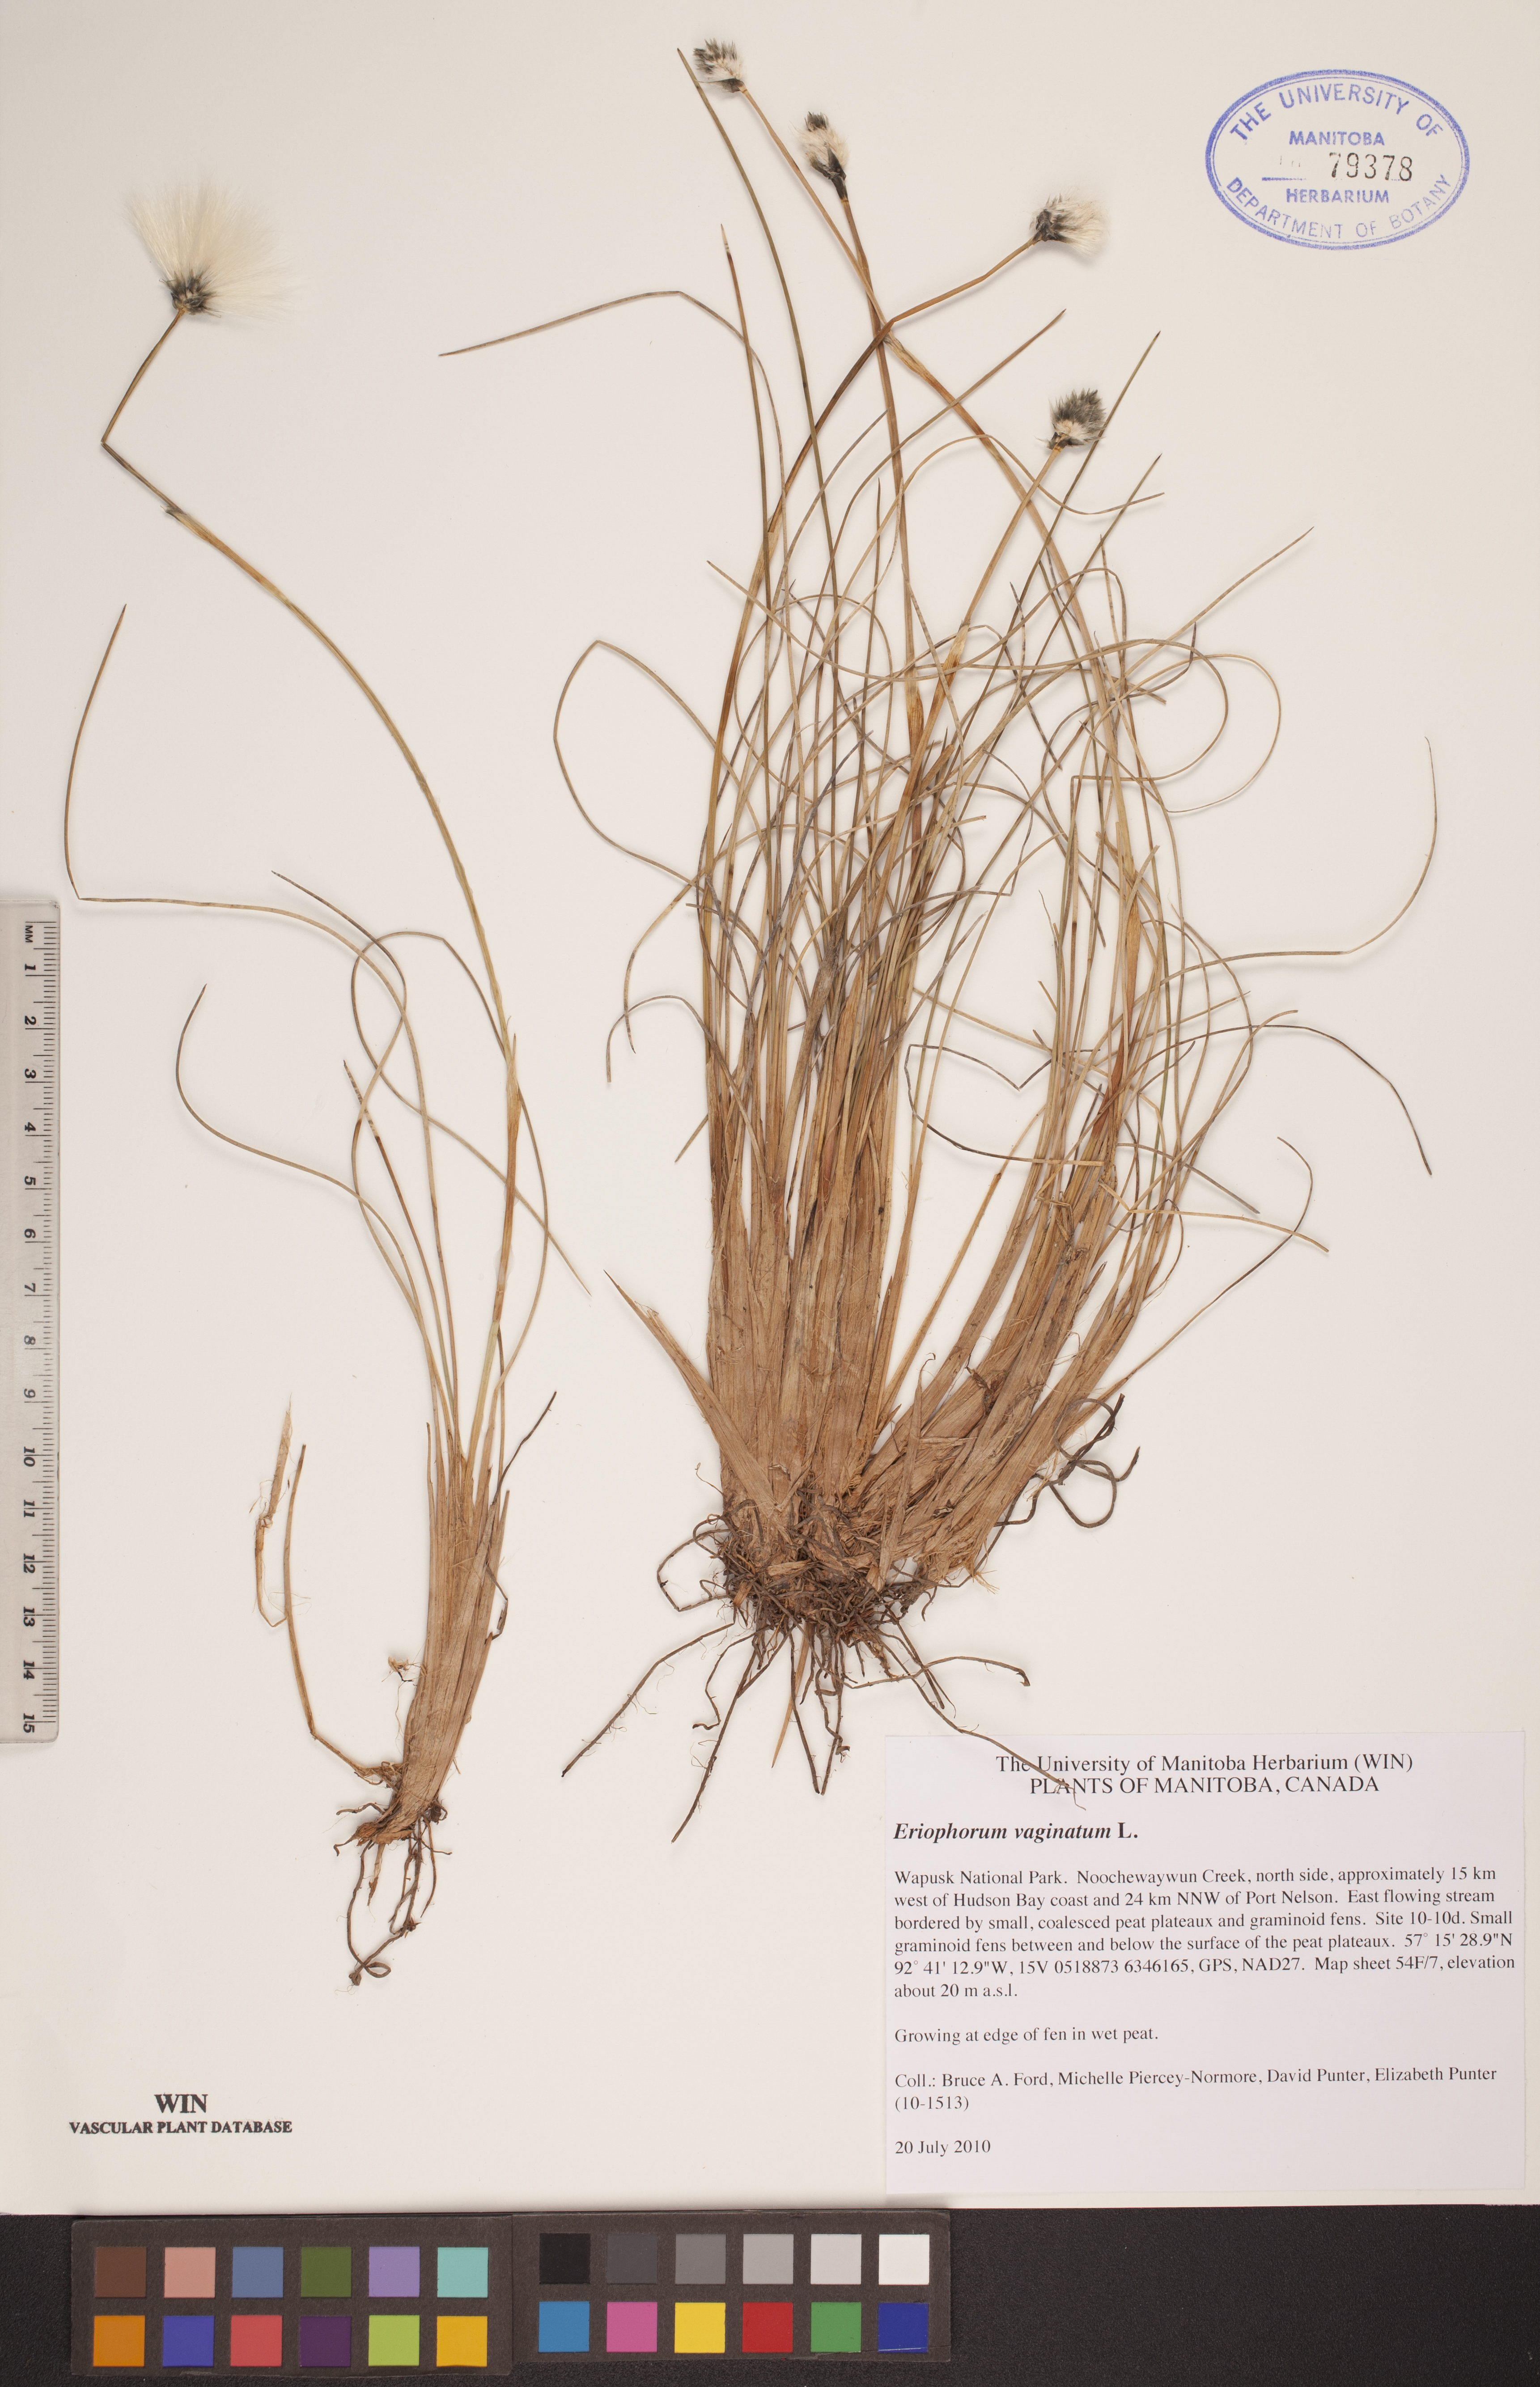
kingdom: Plantae
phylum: Tracheophyta
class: Liliopsida
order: Poales
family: Cyperaceae
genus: Eriophorum
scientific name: Eriophorum vaginatum
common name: Hare's-tail cottongrass
